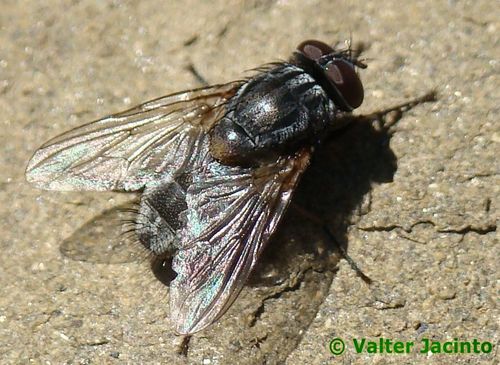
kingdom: Animalia
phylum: Arthropoda
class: Insecta
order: Diptera
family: Muscidae
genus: Muscina
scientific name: Muscina stabulans
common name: False stable fly
